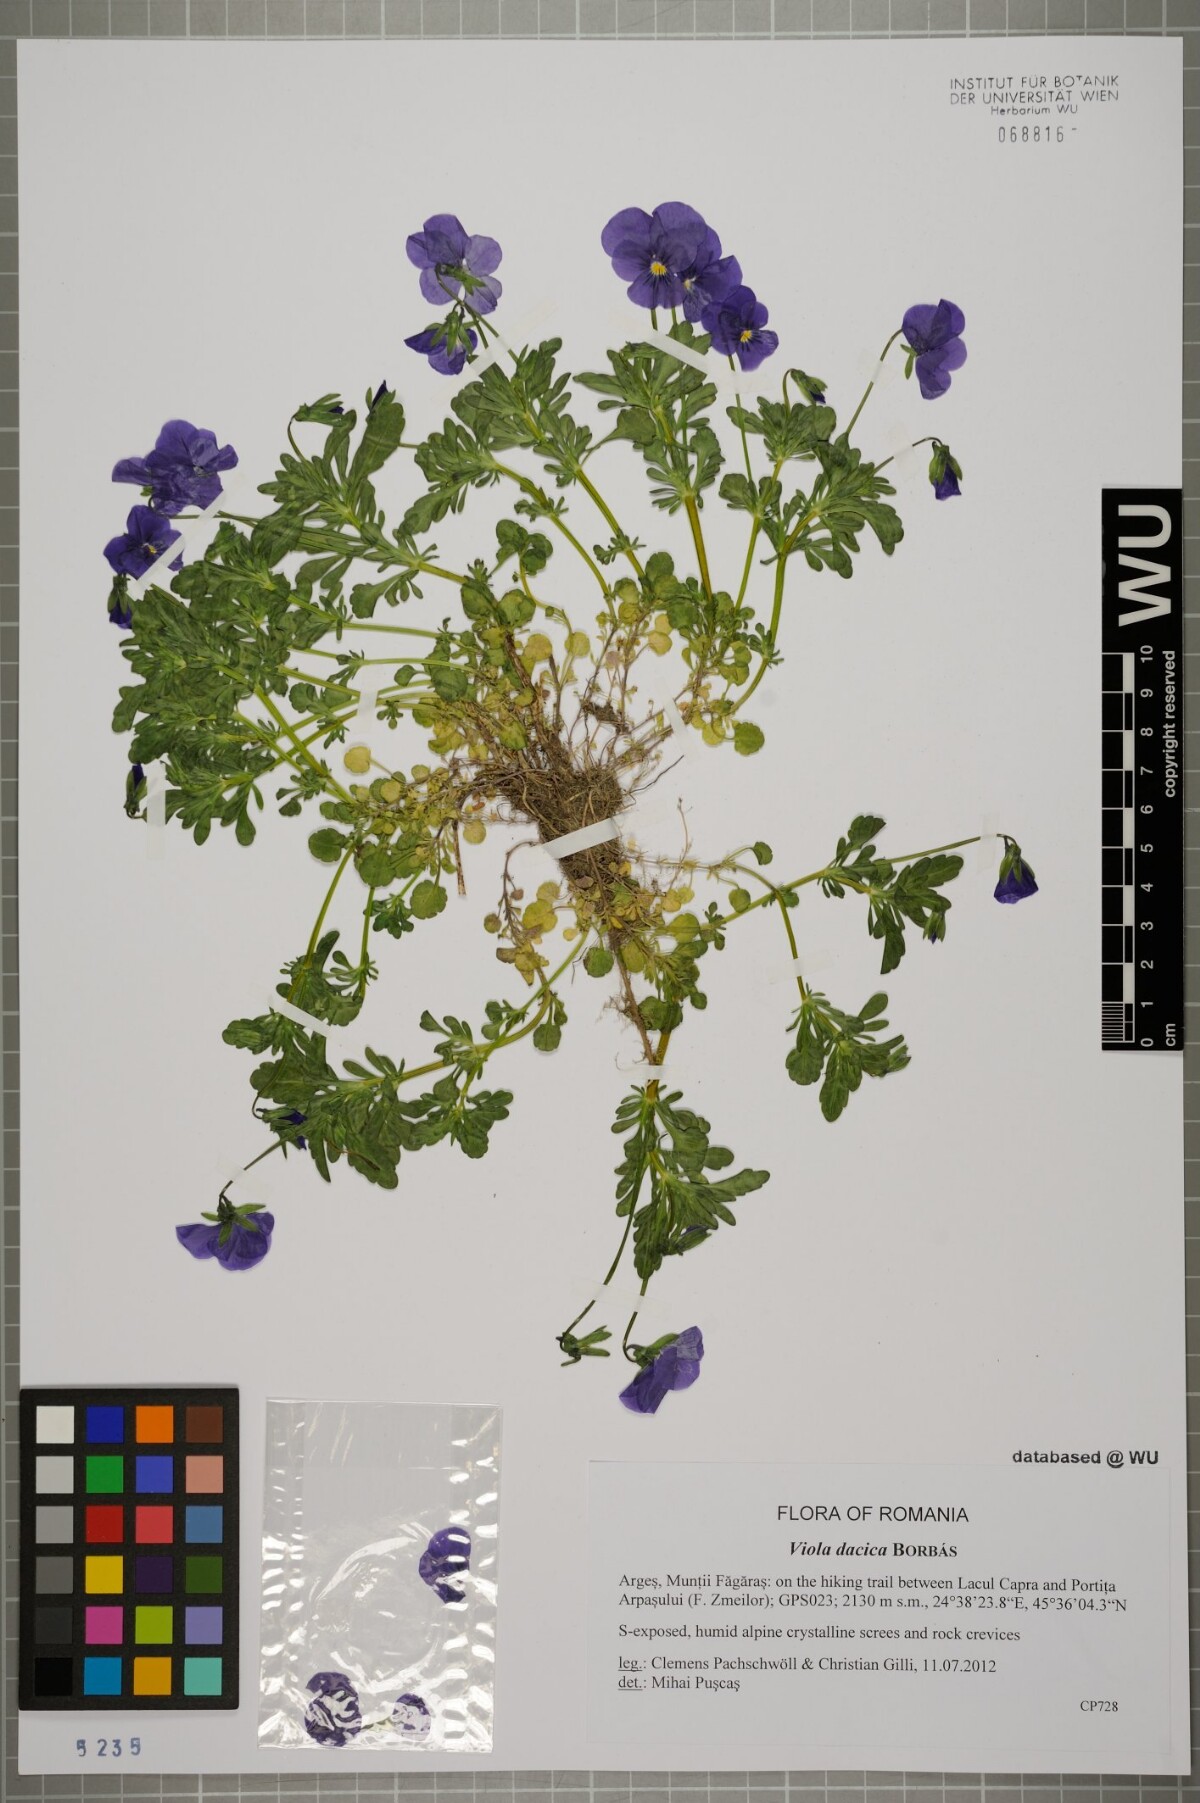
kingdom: Plantae
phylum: Tracheophyta
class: Magnoliopsida
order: Malpighiales
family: Violaceae
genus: Viola
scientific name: Viola dacica
